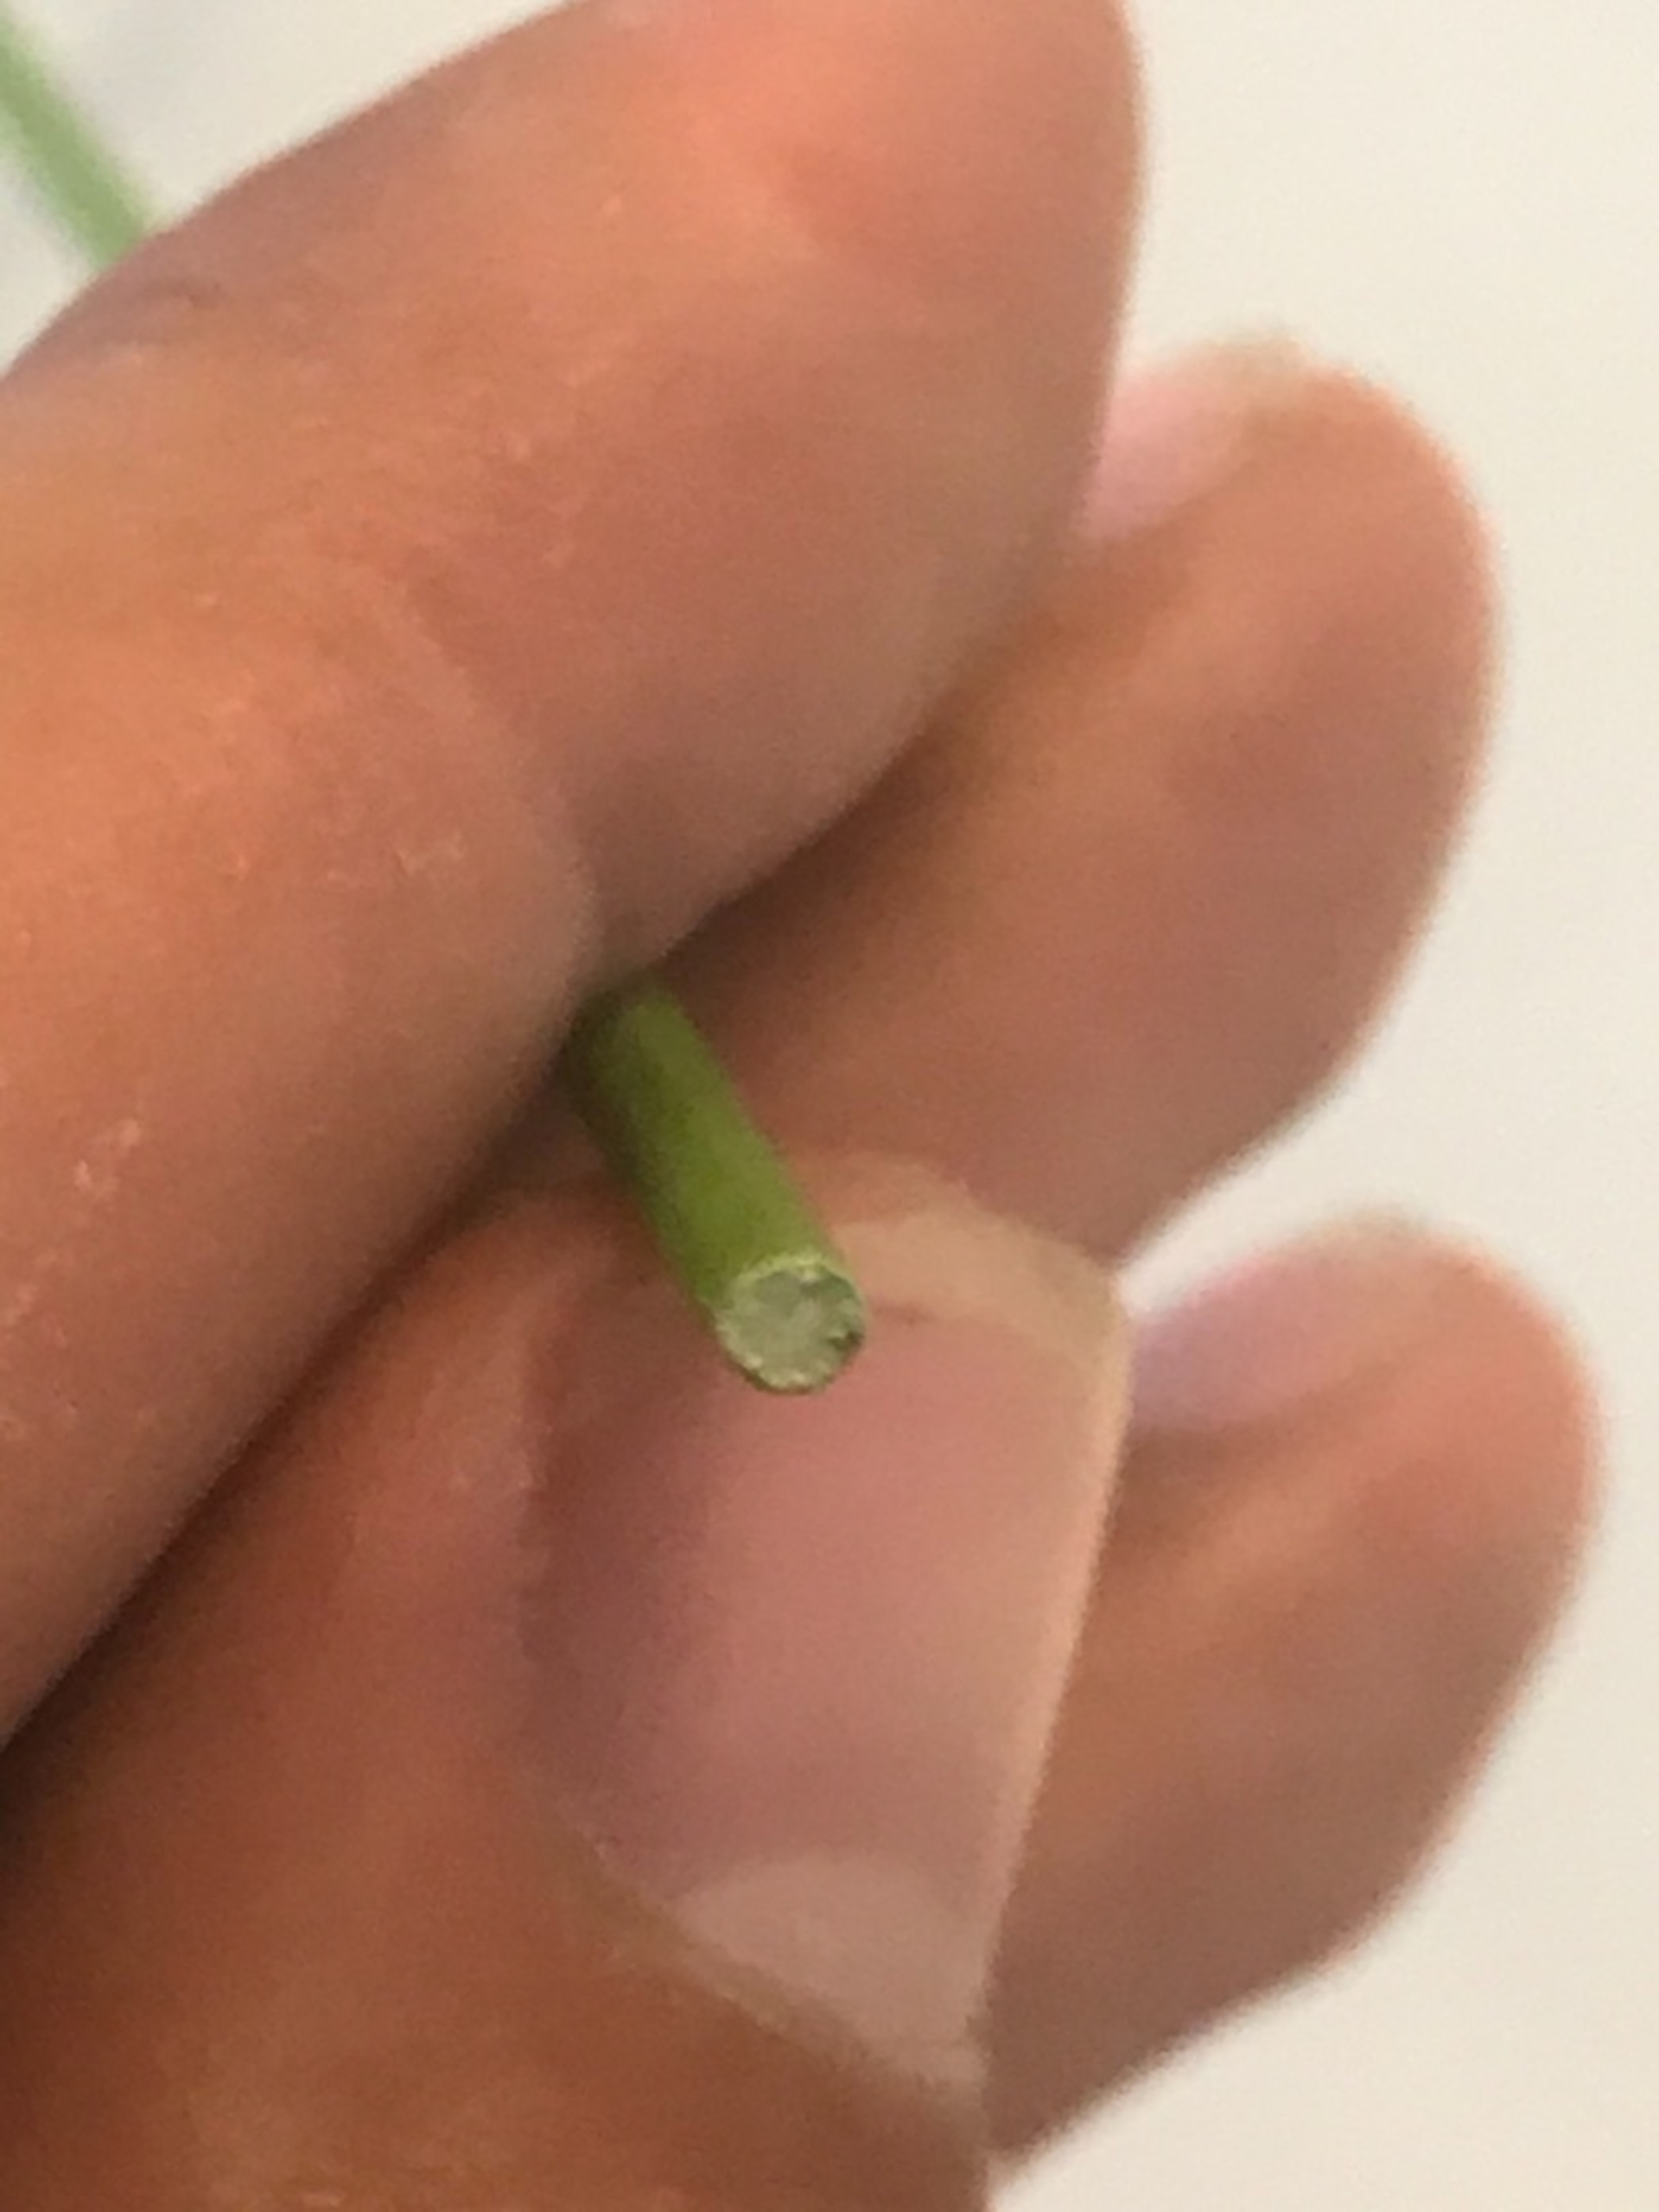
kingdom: Plantae
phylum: Tracheophyta
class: Liliopsida
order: Poales
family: Juncaceae
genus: Juncus
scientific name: Juncus effusus
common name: Lyse-siv
